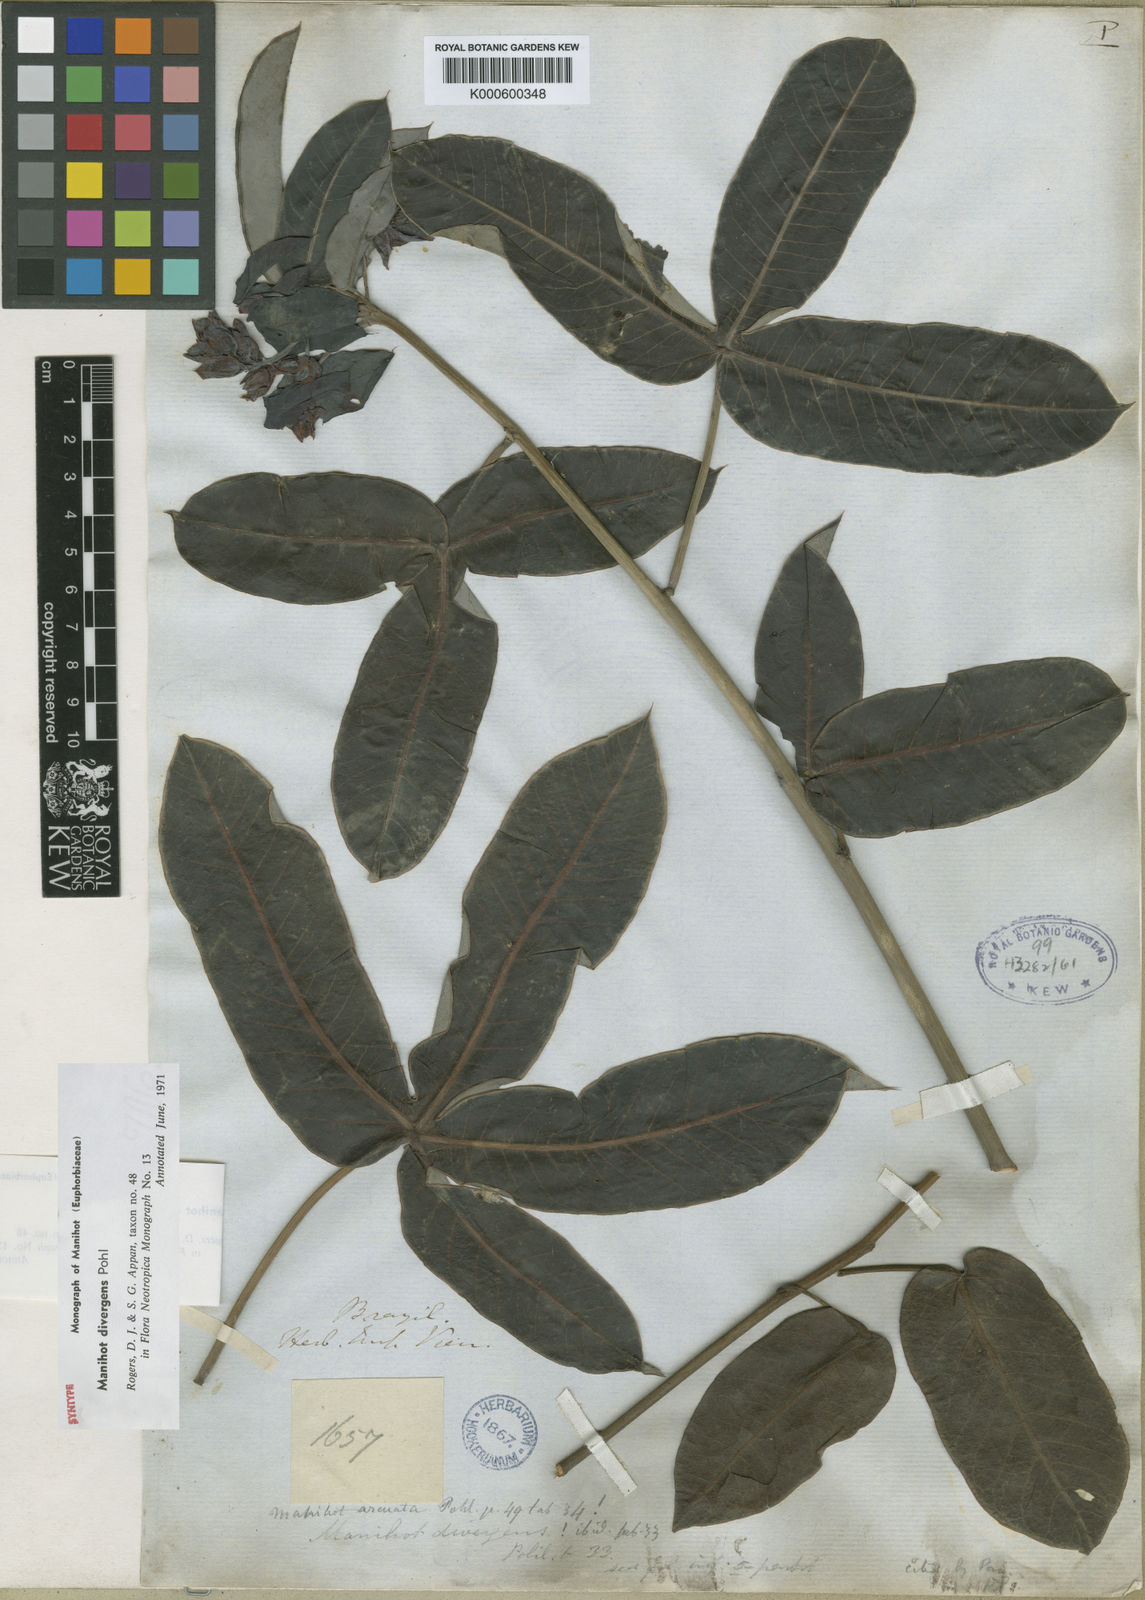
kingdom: Plantae
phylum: Tracheophyta
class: Magnoliopsida
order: Malpighiales
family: Euphorbiaceae
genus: Manihot
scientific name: Manihot divergens
